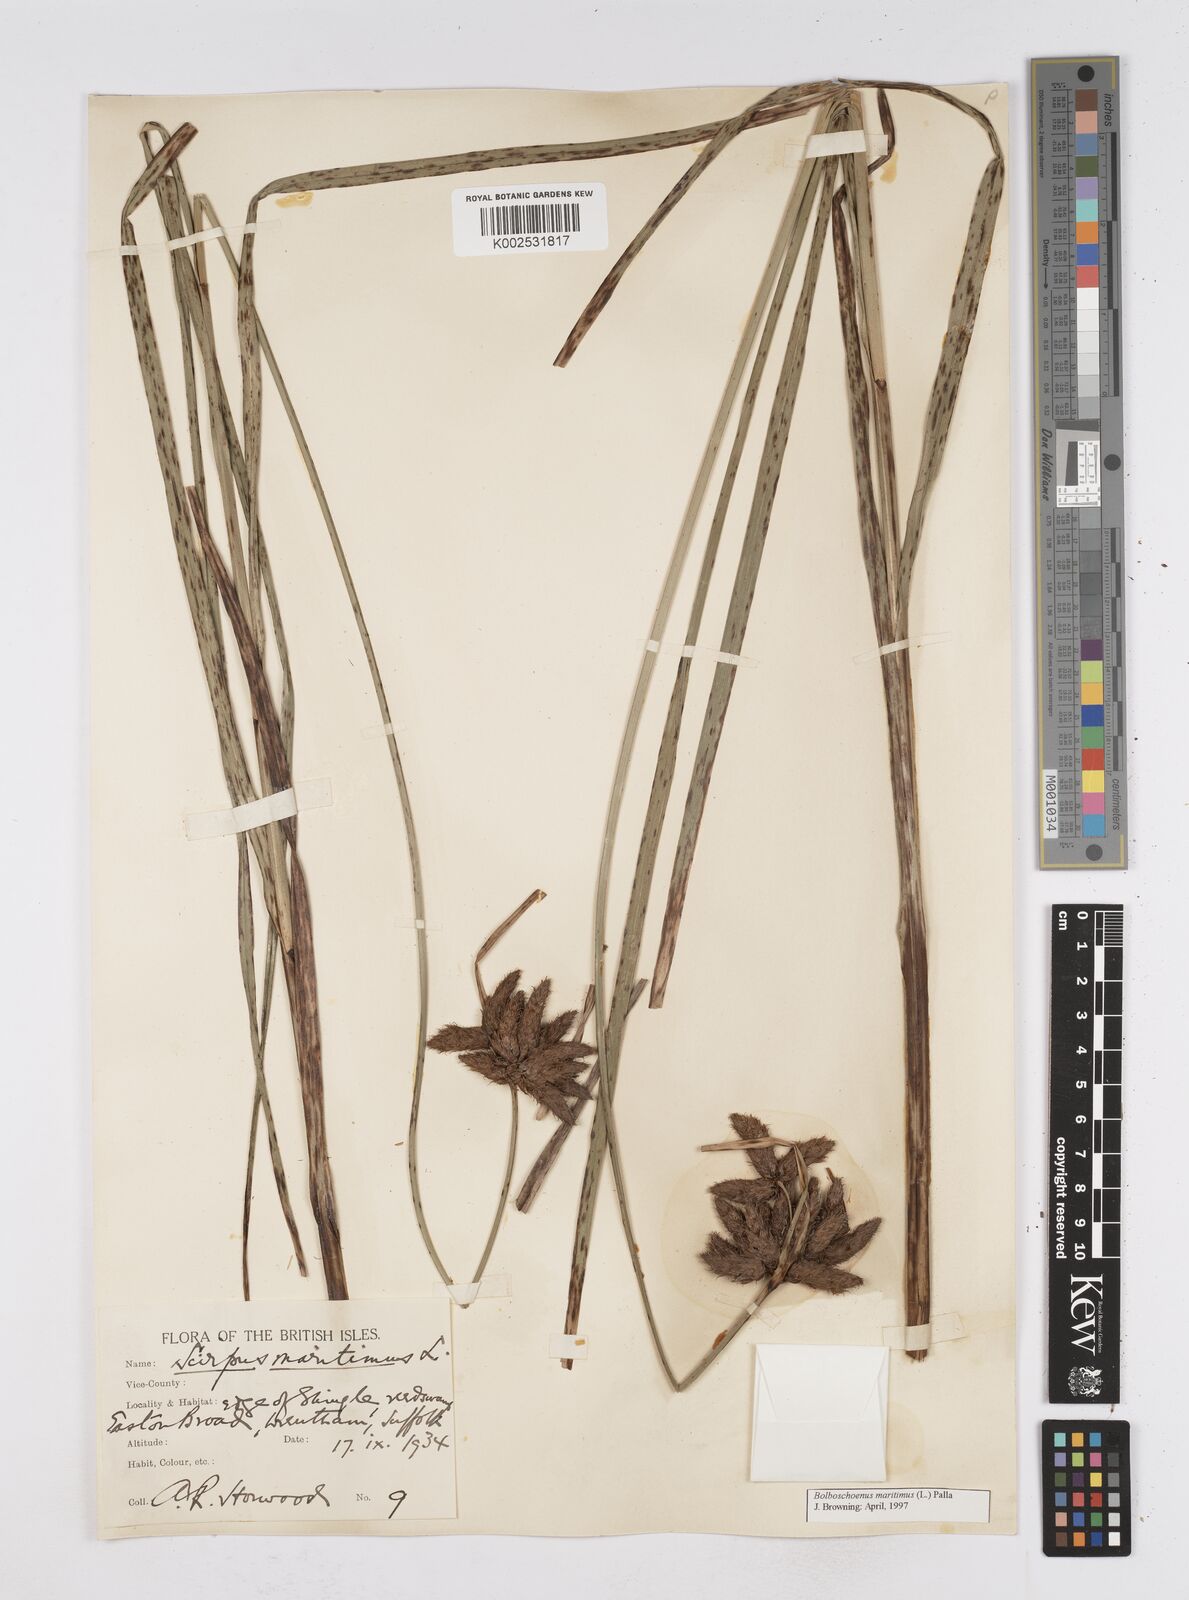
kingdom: Plantae
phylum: Tracheophyta
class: Liliopsida
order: Poales
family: Cyperaceae
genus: Bolboschoenus
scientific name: Bolboschoenus maritimus
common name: Sea club-rush
